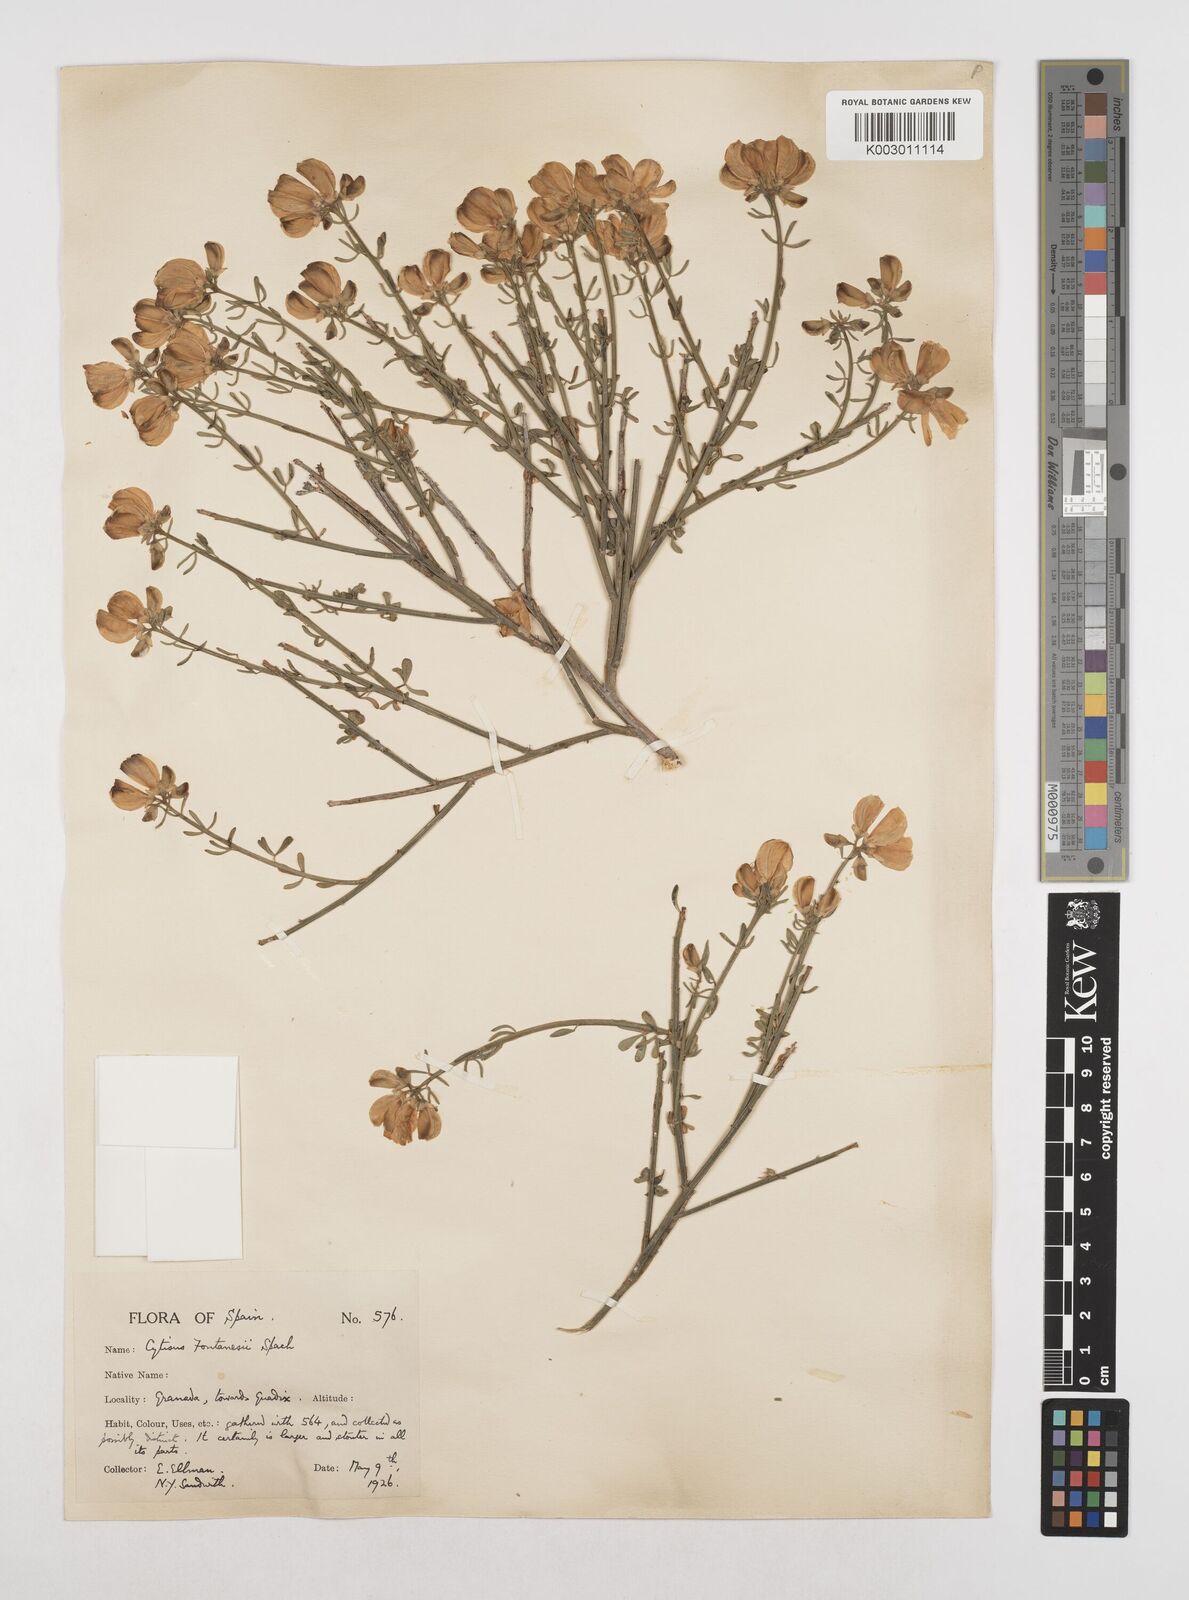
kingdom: Plantae
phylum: Tracheophyta
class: Magnoliopsida
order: Fabales
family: Fabaceae
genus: Cytisus
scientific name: Cytisus fontanesii
